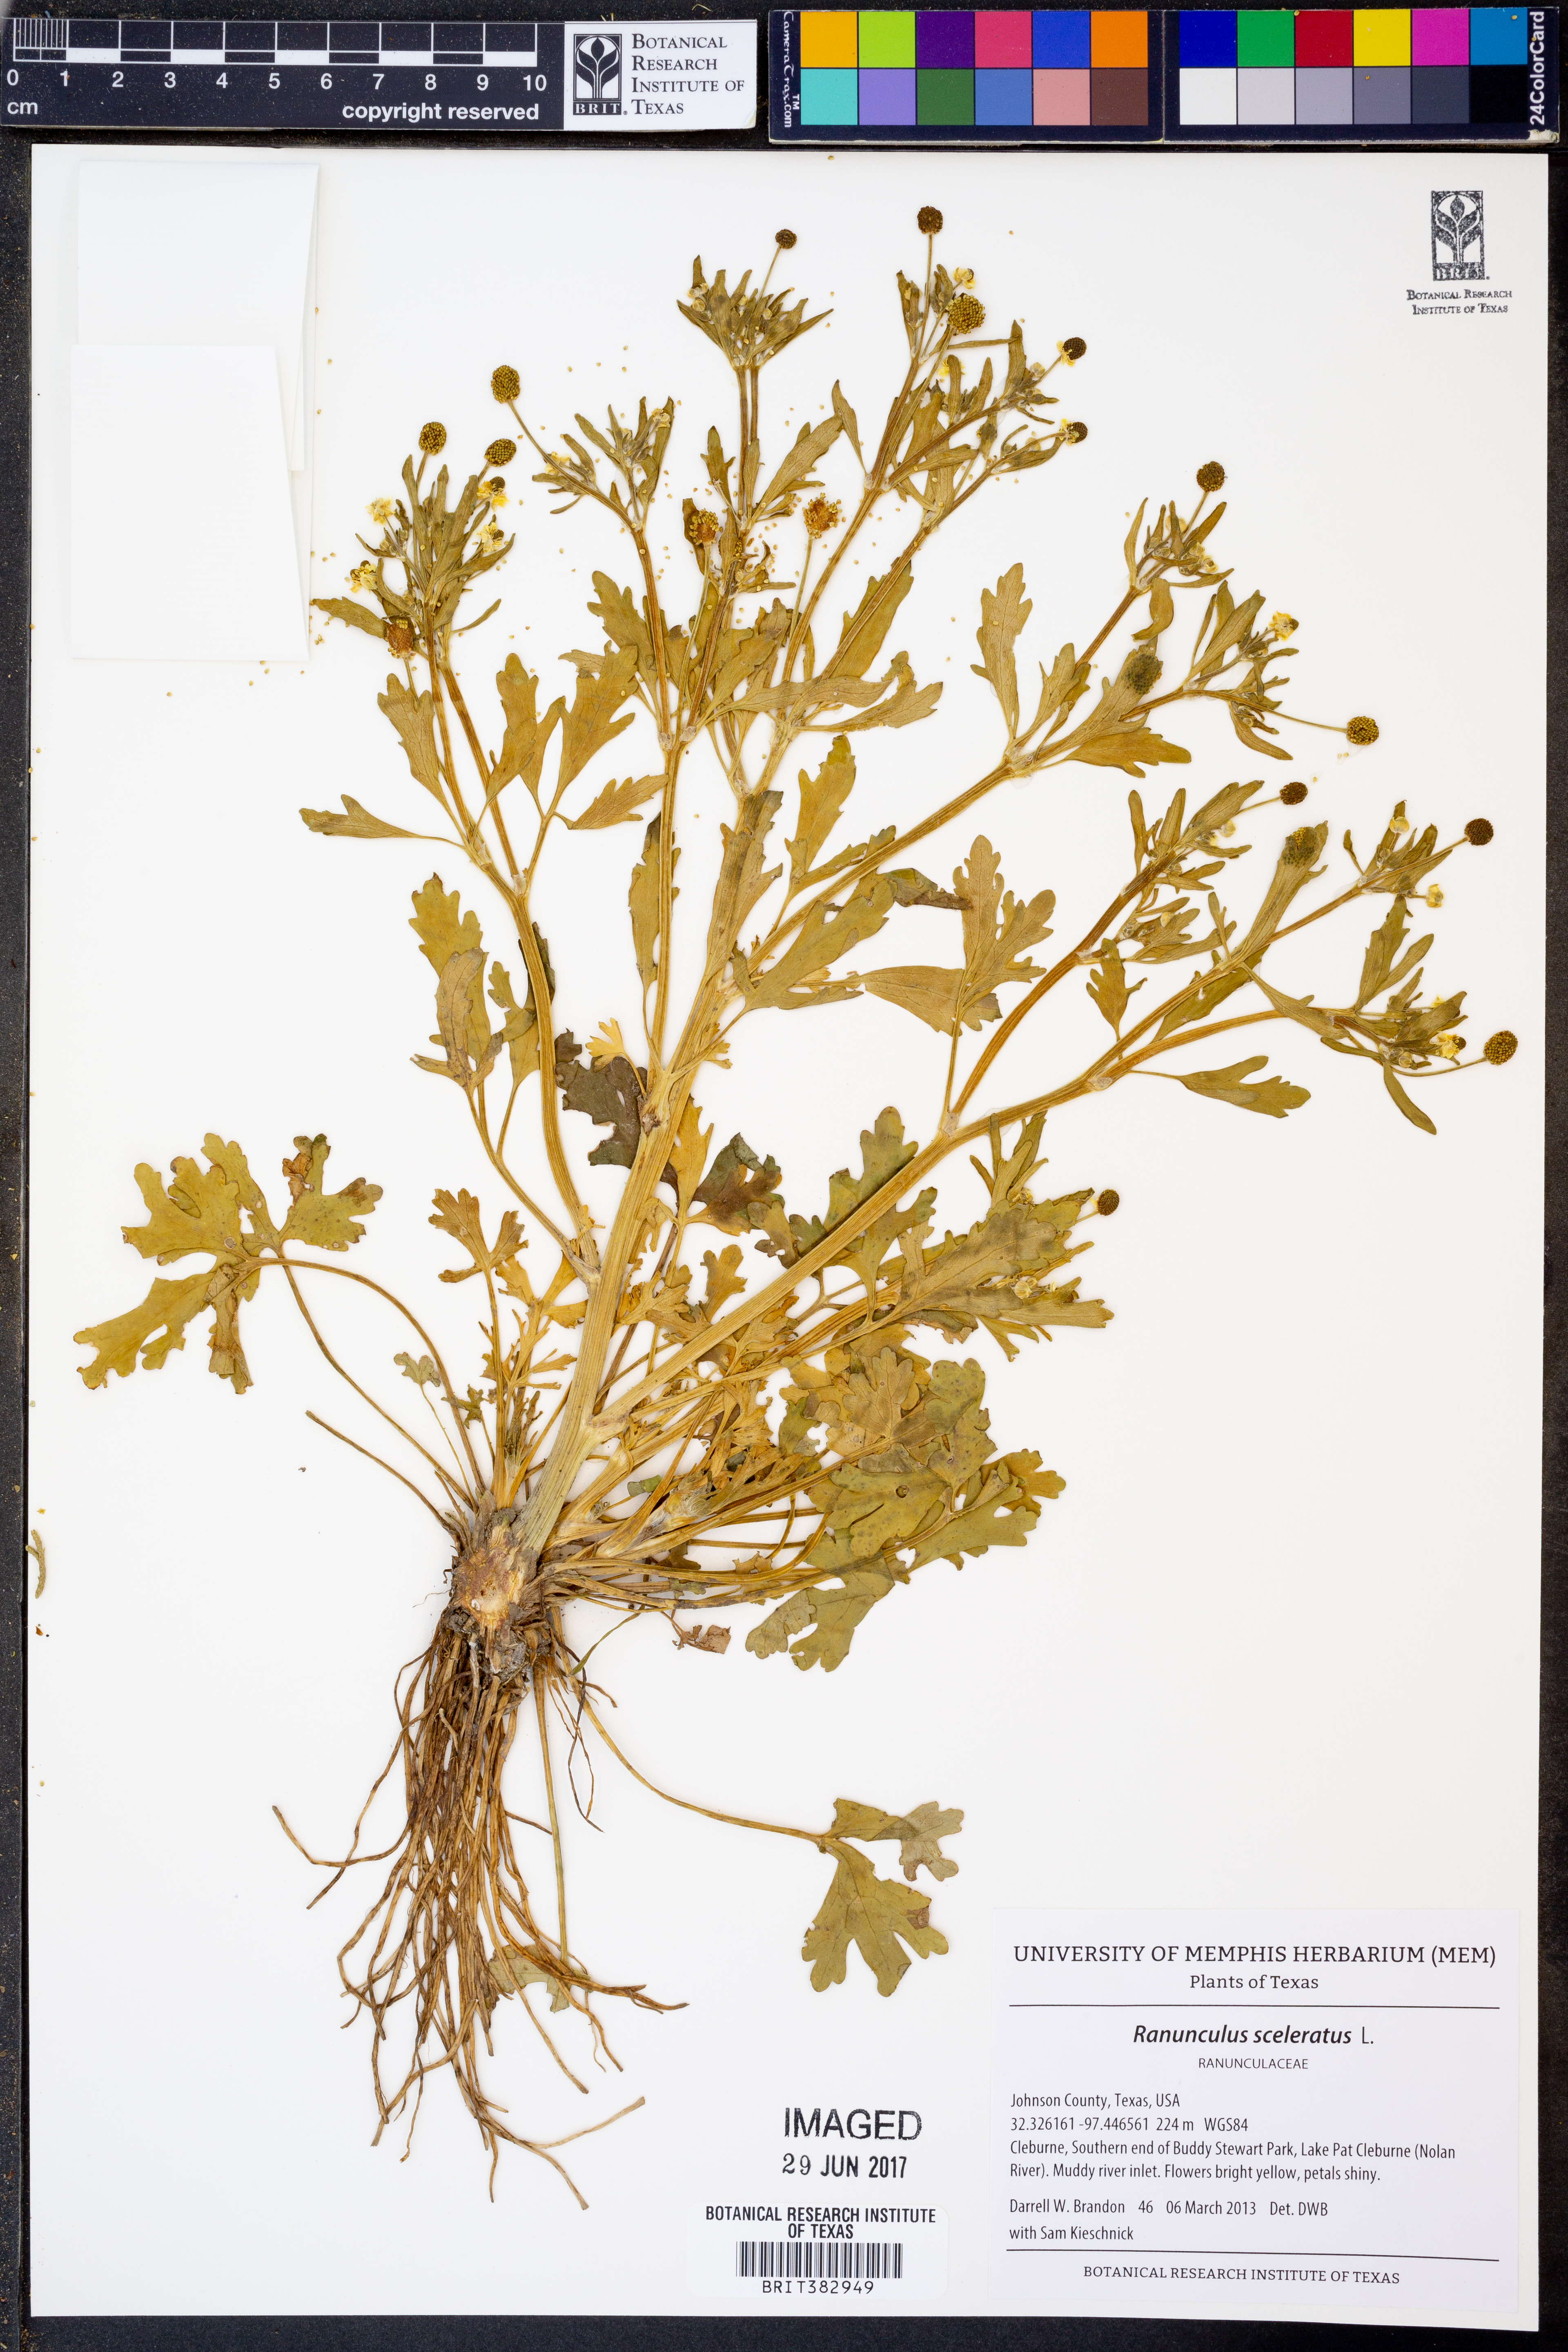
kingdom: Plantae
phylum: Tracheophyta
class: Magnoliopsida
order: Ranunculales
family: Ranunculaceae
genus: Ranunculus
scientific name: Ranunculus sceleratus
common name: Celery-leaved buttercup
